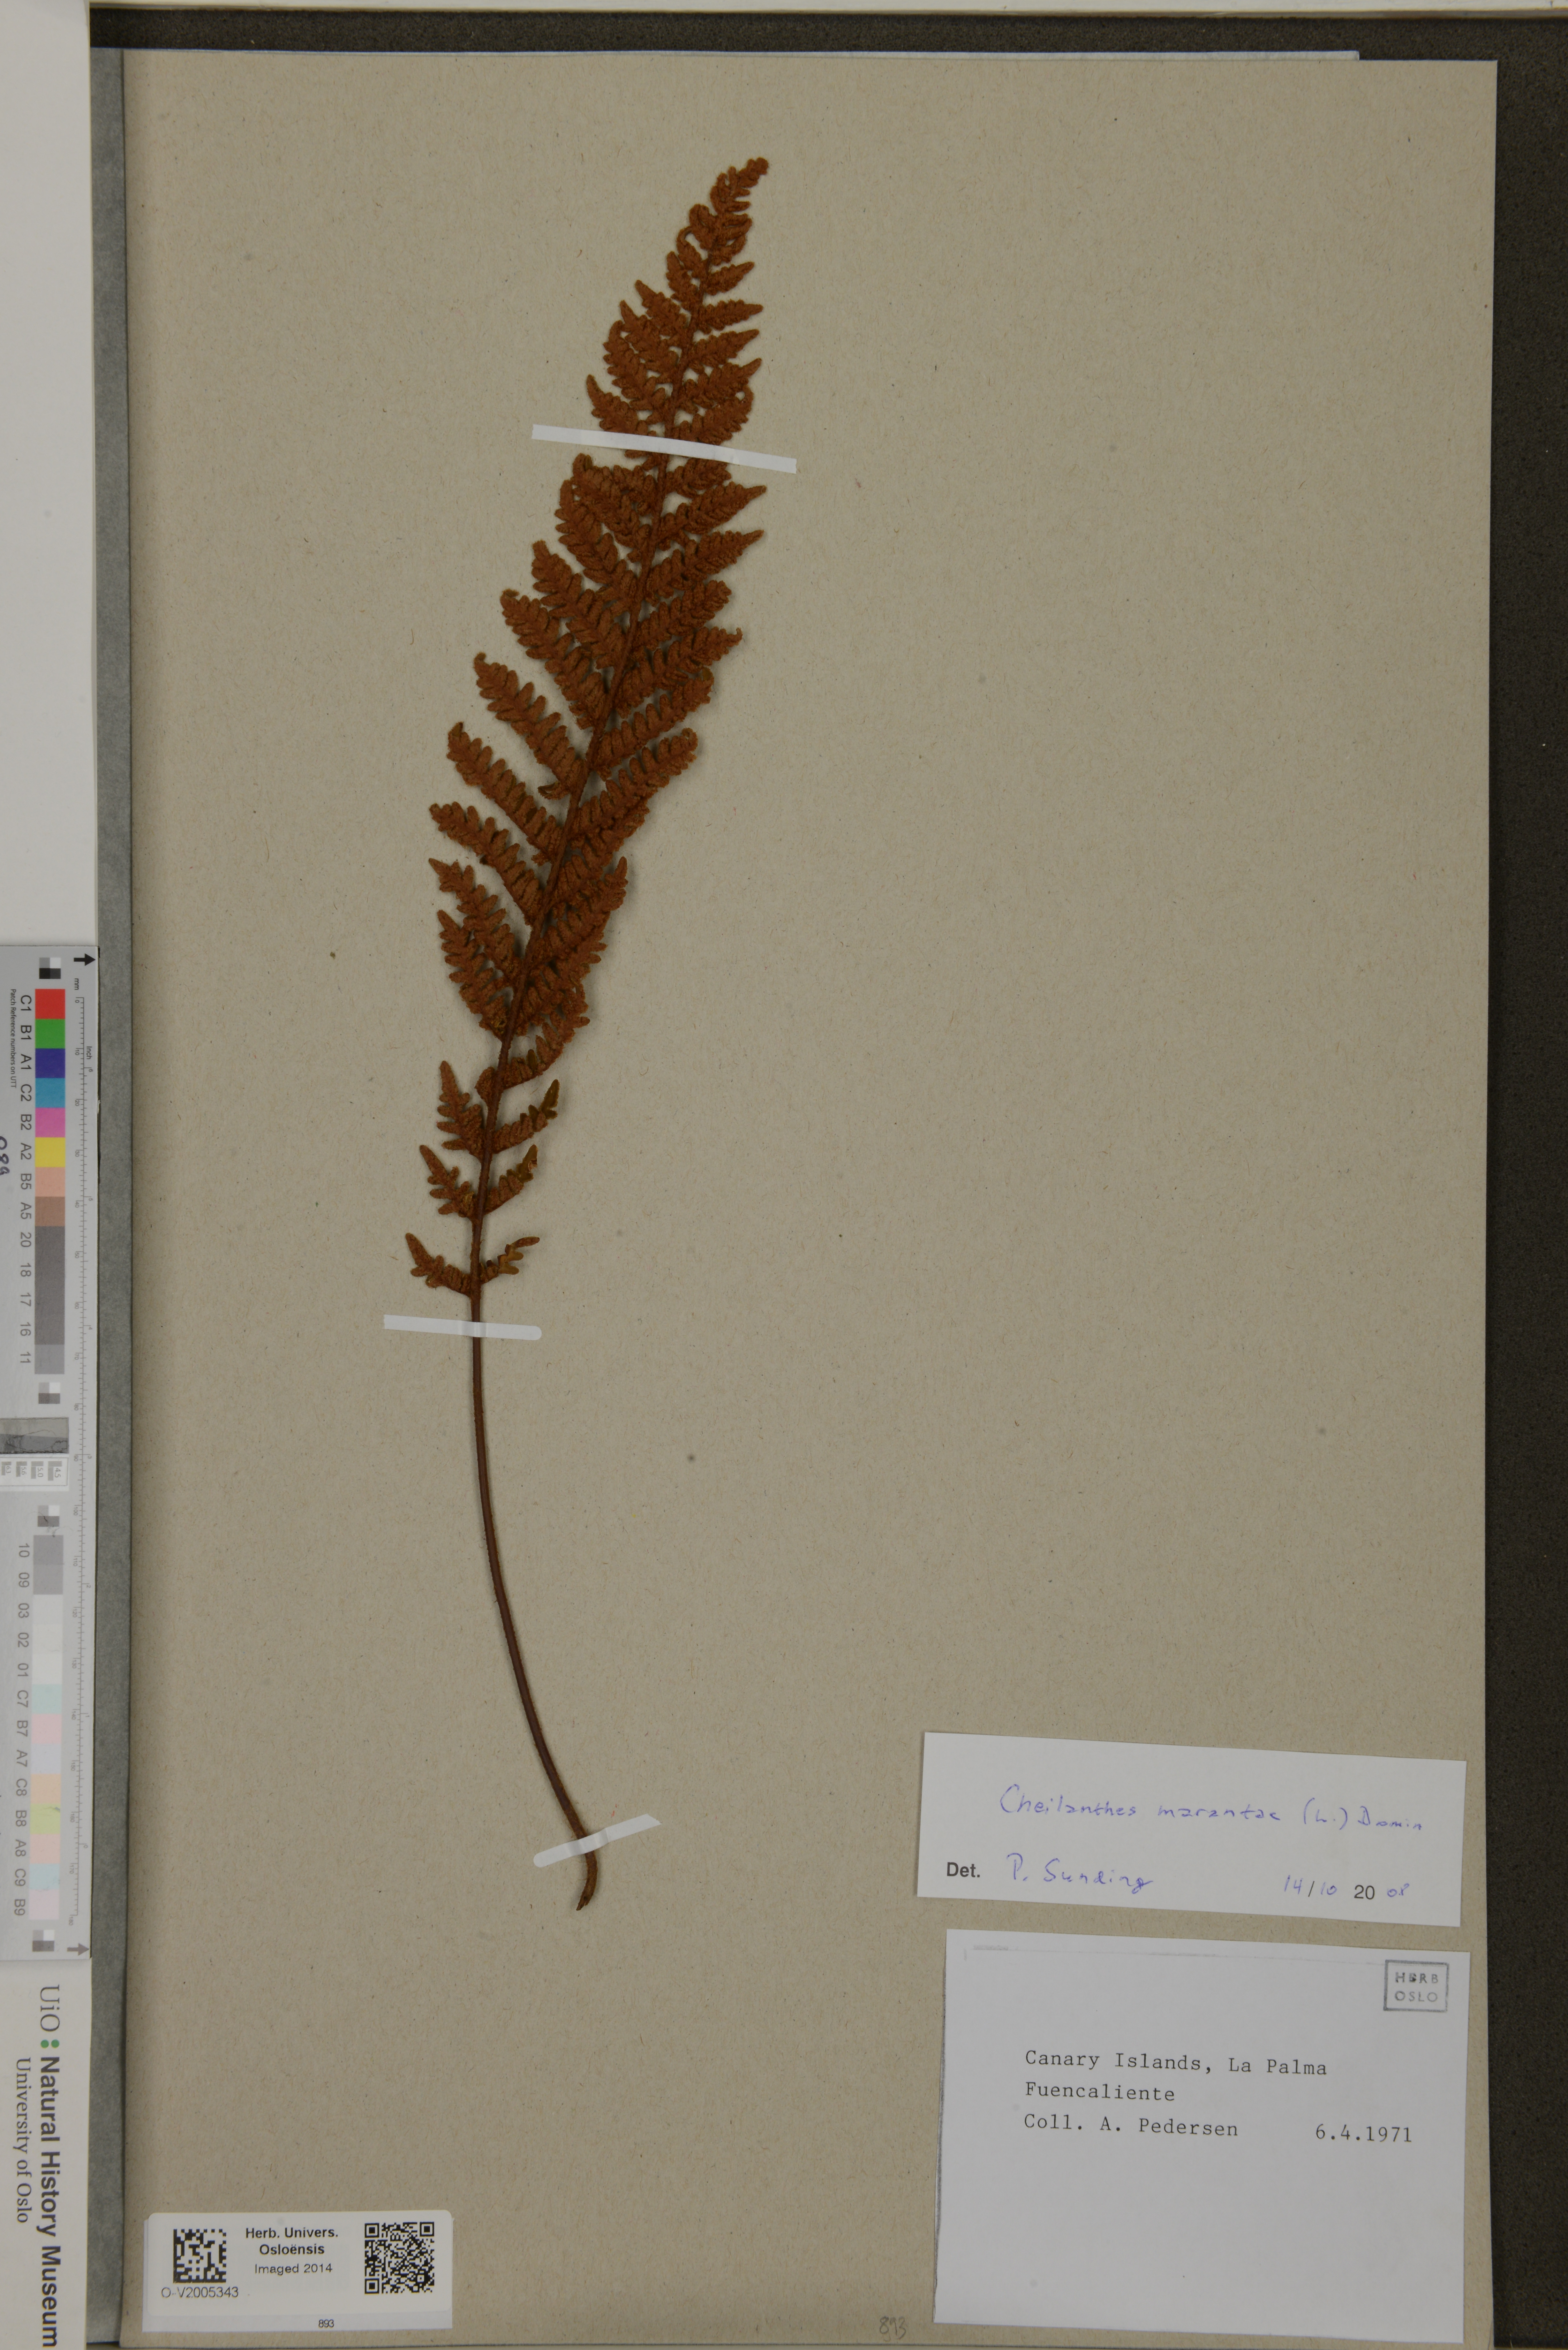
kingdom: Plantae
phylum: Tracheophyta
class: Polypodiopsida
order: Polypodiales
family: Pteridaceae
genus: Paragymnopteris
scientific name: Paragymnopteris marantae
